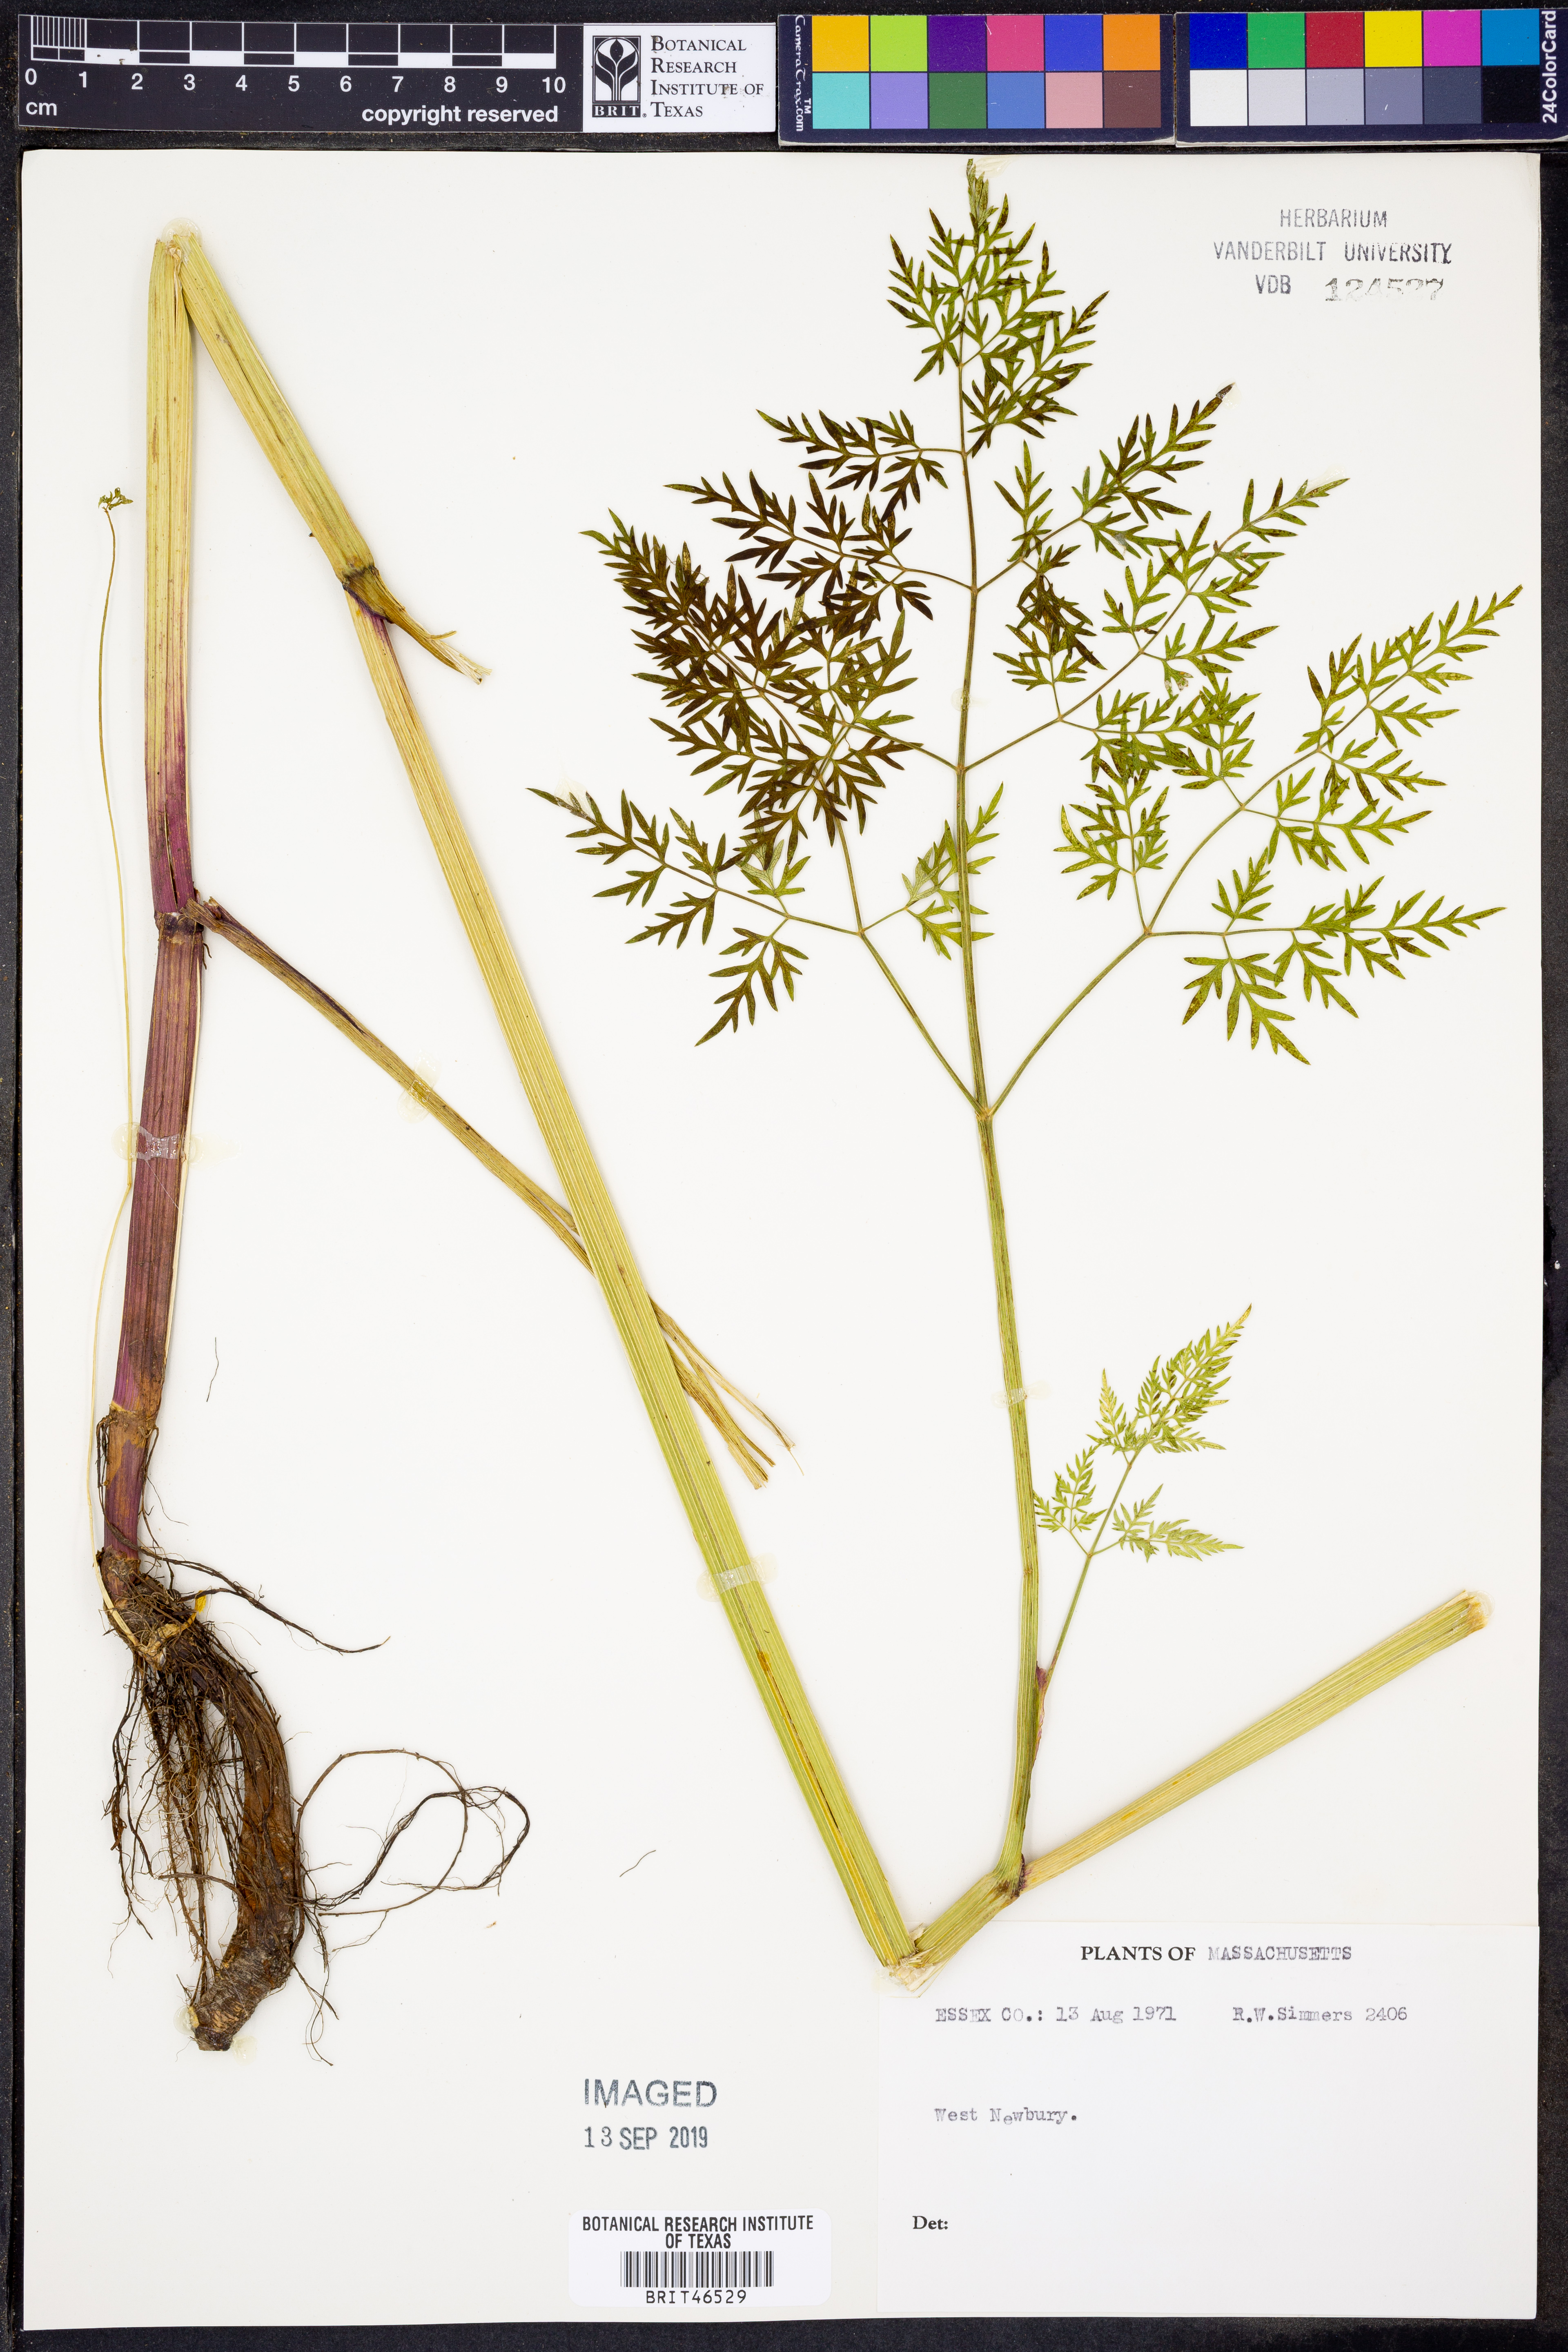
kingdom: Plantae
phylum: Tracheophyta
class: Magnoliopsida
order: Apiales
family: Apiaceae
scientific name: Apiaceae
